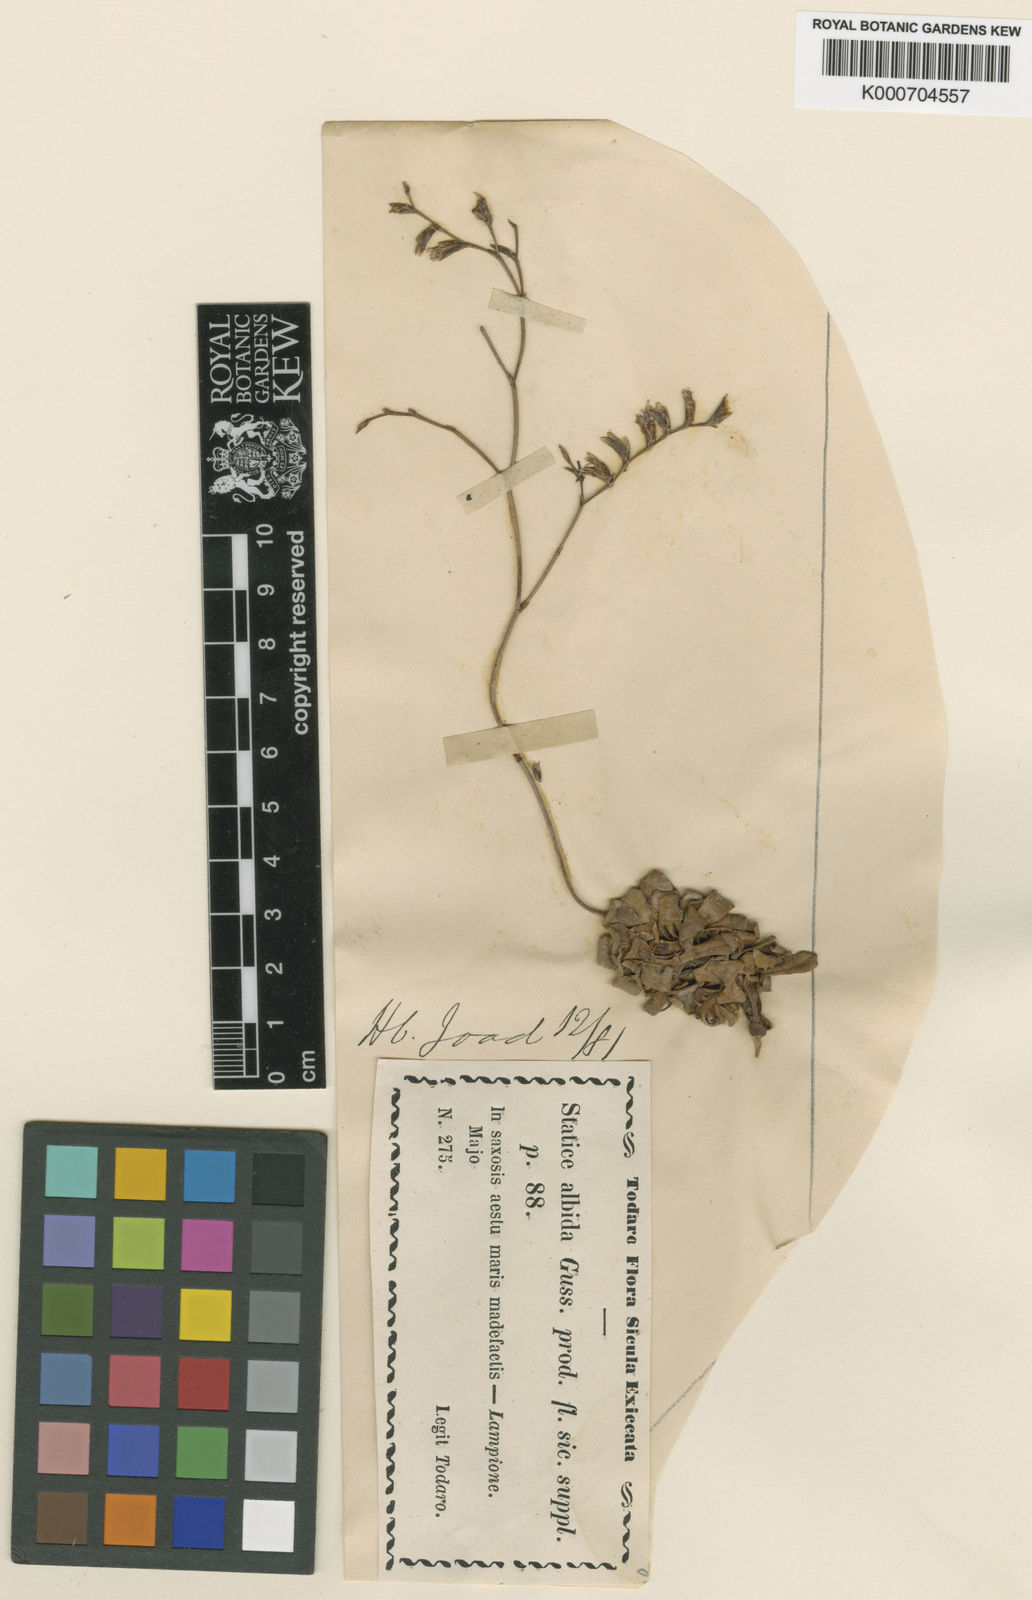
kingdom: Plantae
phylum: Tracheophyta
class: Magnoliopsida
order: Caryophyllales
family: Plumbaginaceae
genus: Limonium
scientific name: Limonium albidum
